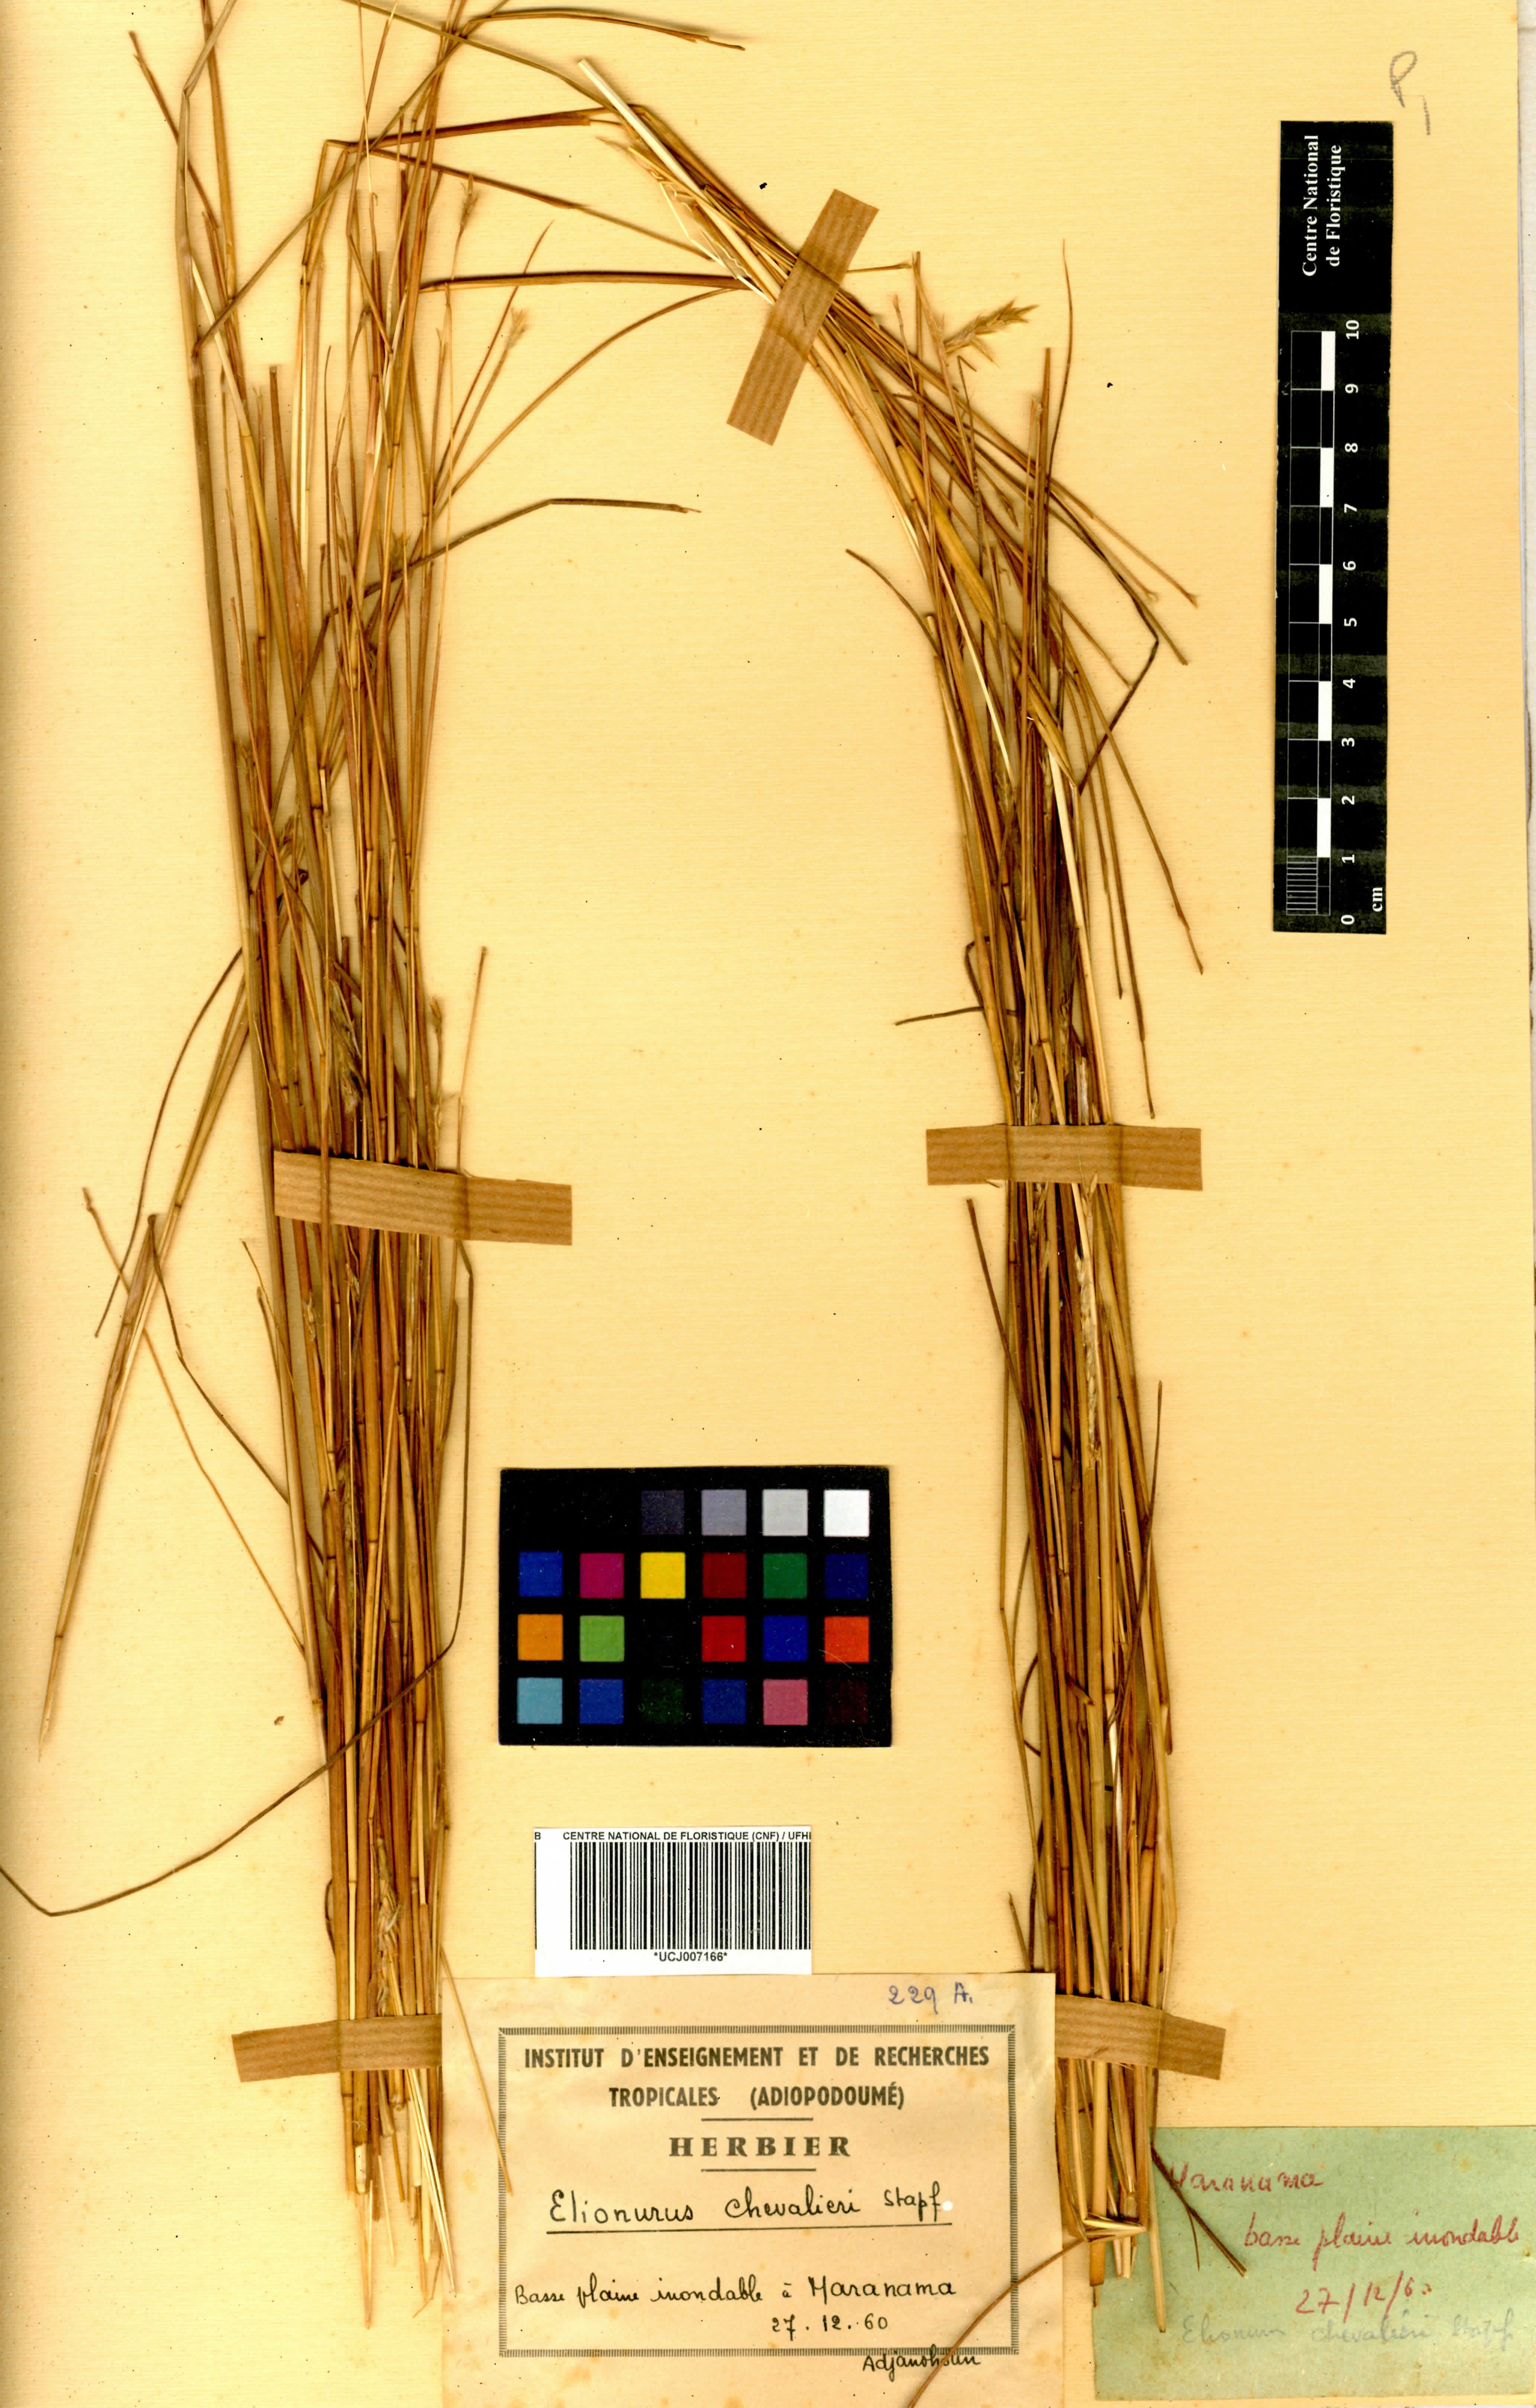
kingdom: Plantae
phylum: Tracheophyta
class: Liliopsida
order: Poales
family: Poaceae
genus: Elionurus
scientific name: Elionurus muticus
